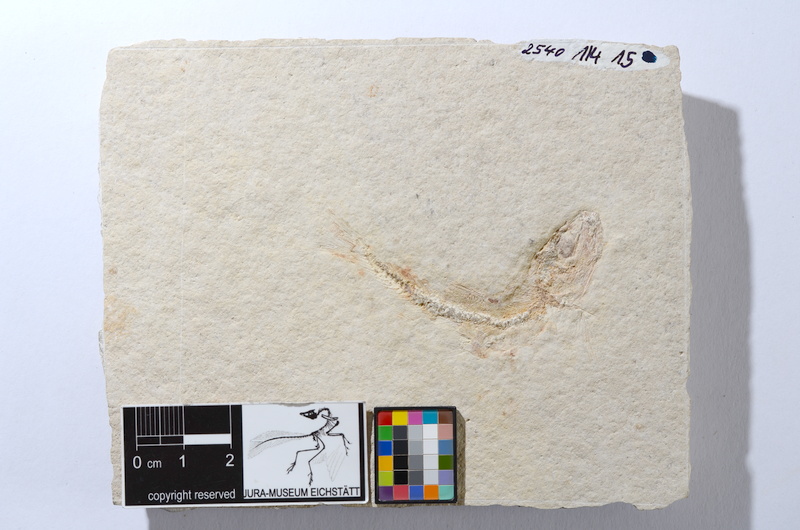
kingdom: Animalia
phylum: Chordata
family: Ascalaboidae
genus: Tharsis
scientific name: Tharsis dubius
